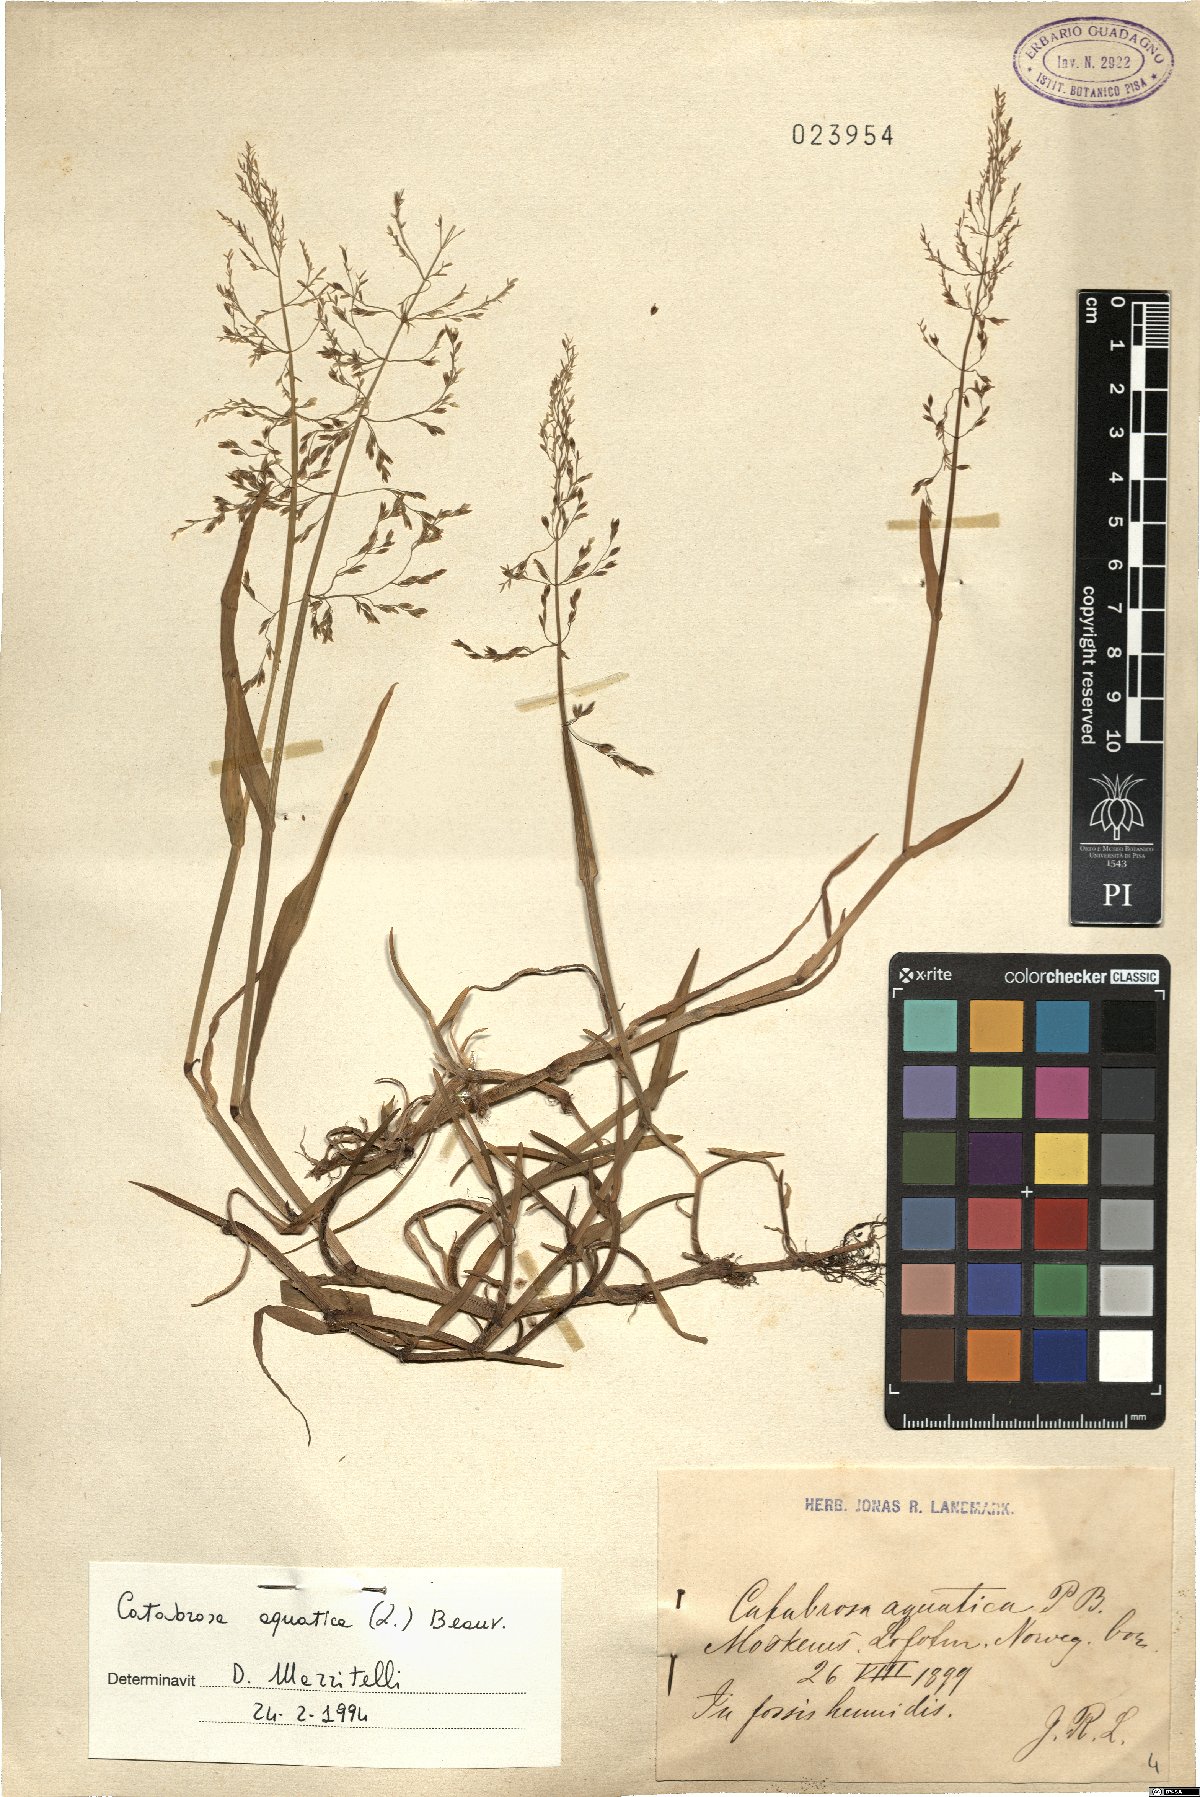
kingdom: Plantae
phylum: Tracheophyta
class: Liliopsida
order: Poales
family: Poaceae
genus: Catabrosa
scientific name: Catabrosa aquatica
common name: Whorl-grass
